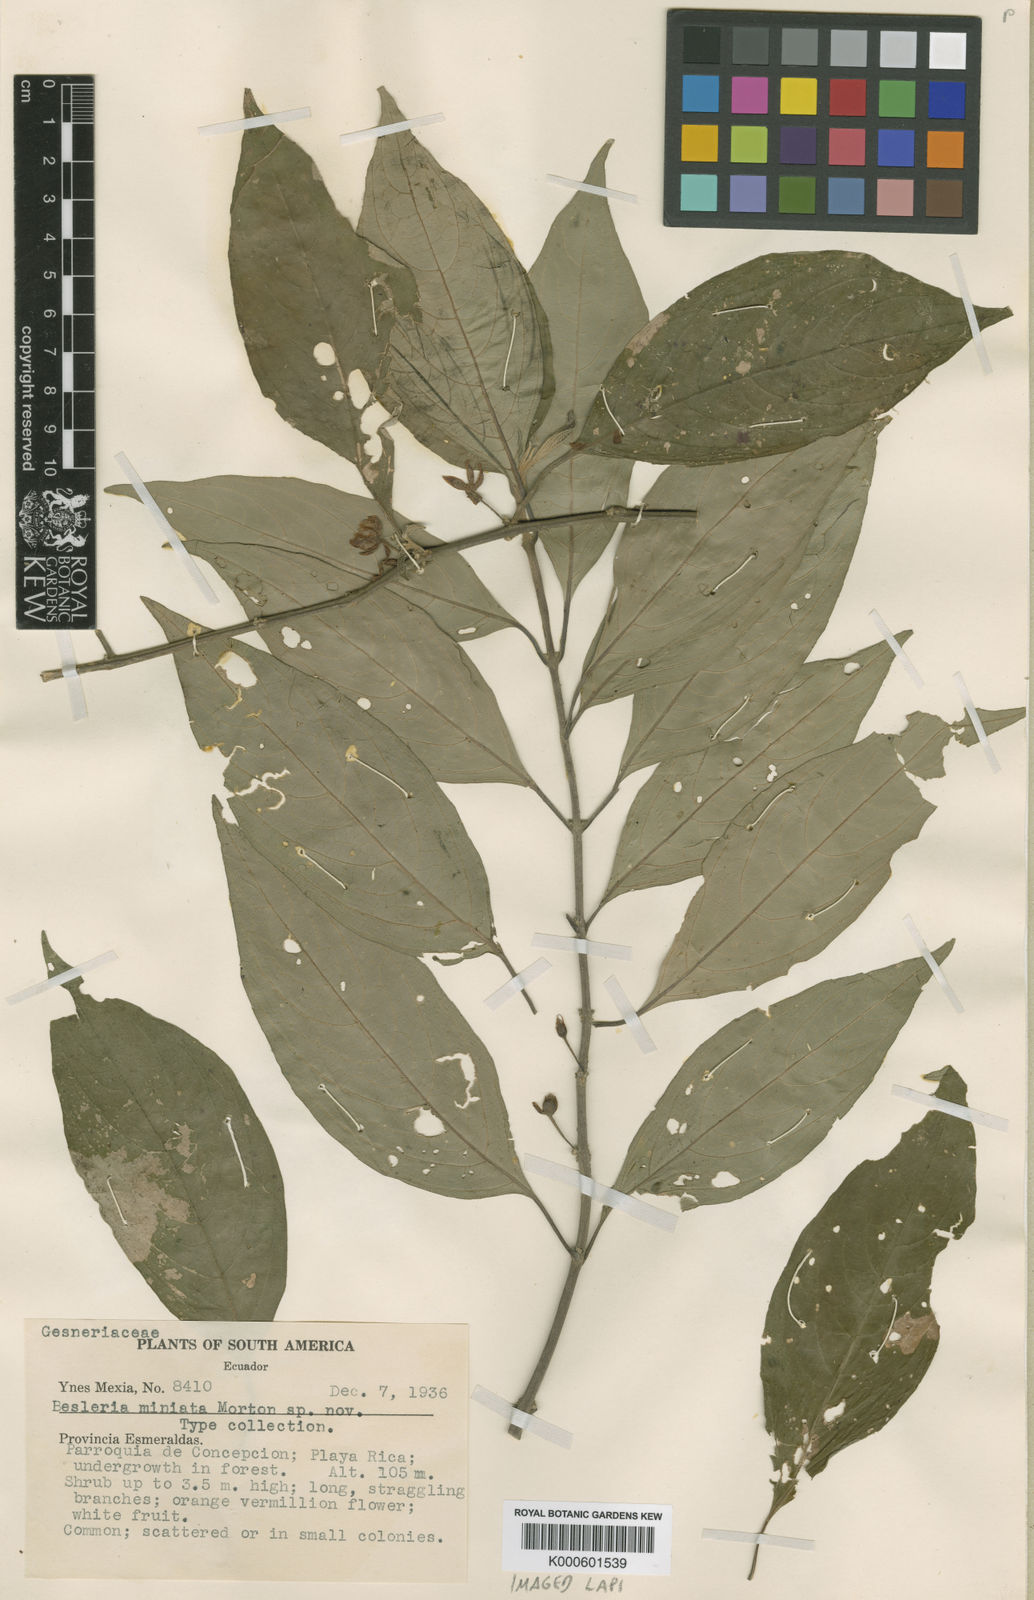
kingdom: Plantae
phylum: Tracheophyta
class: Magnoliopsida
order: Lamiales
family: Gesneriaceae
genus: Besleria
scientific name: Besleria miniata
